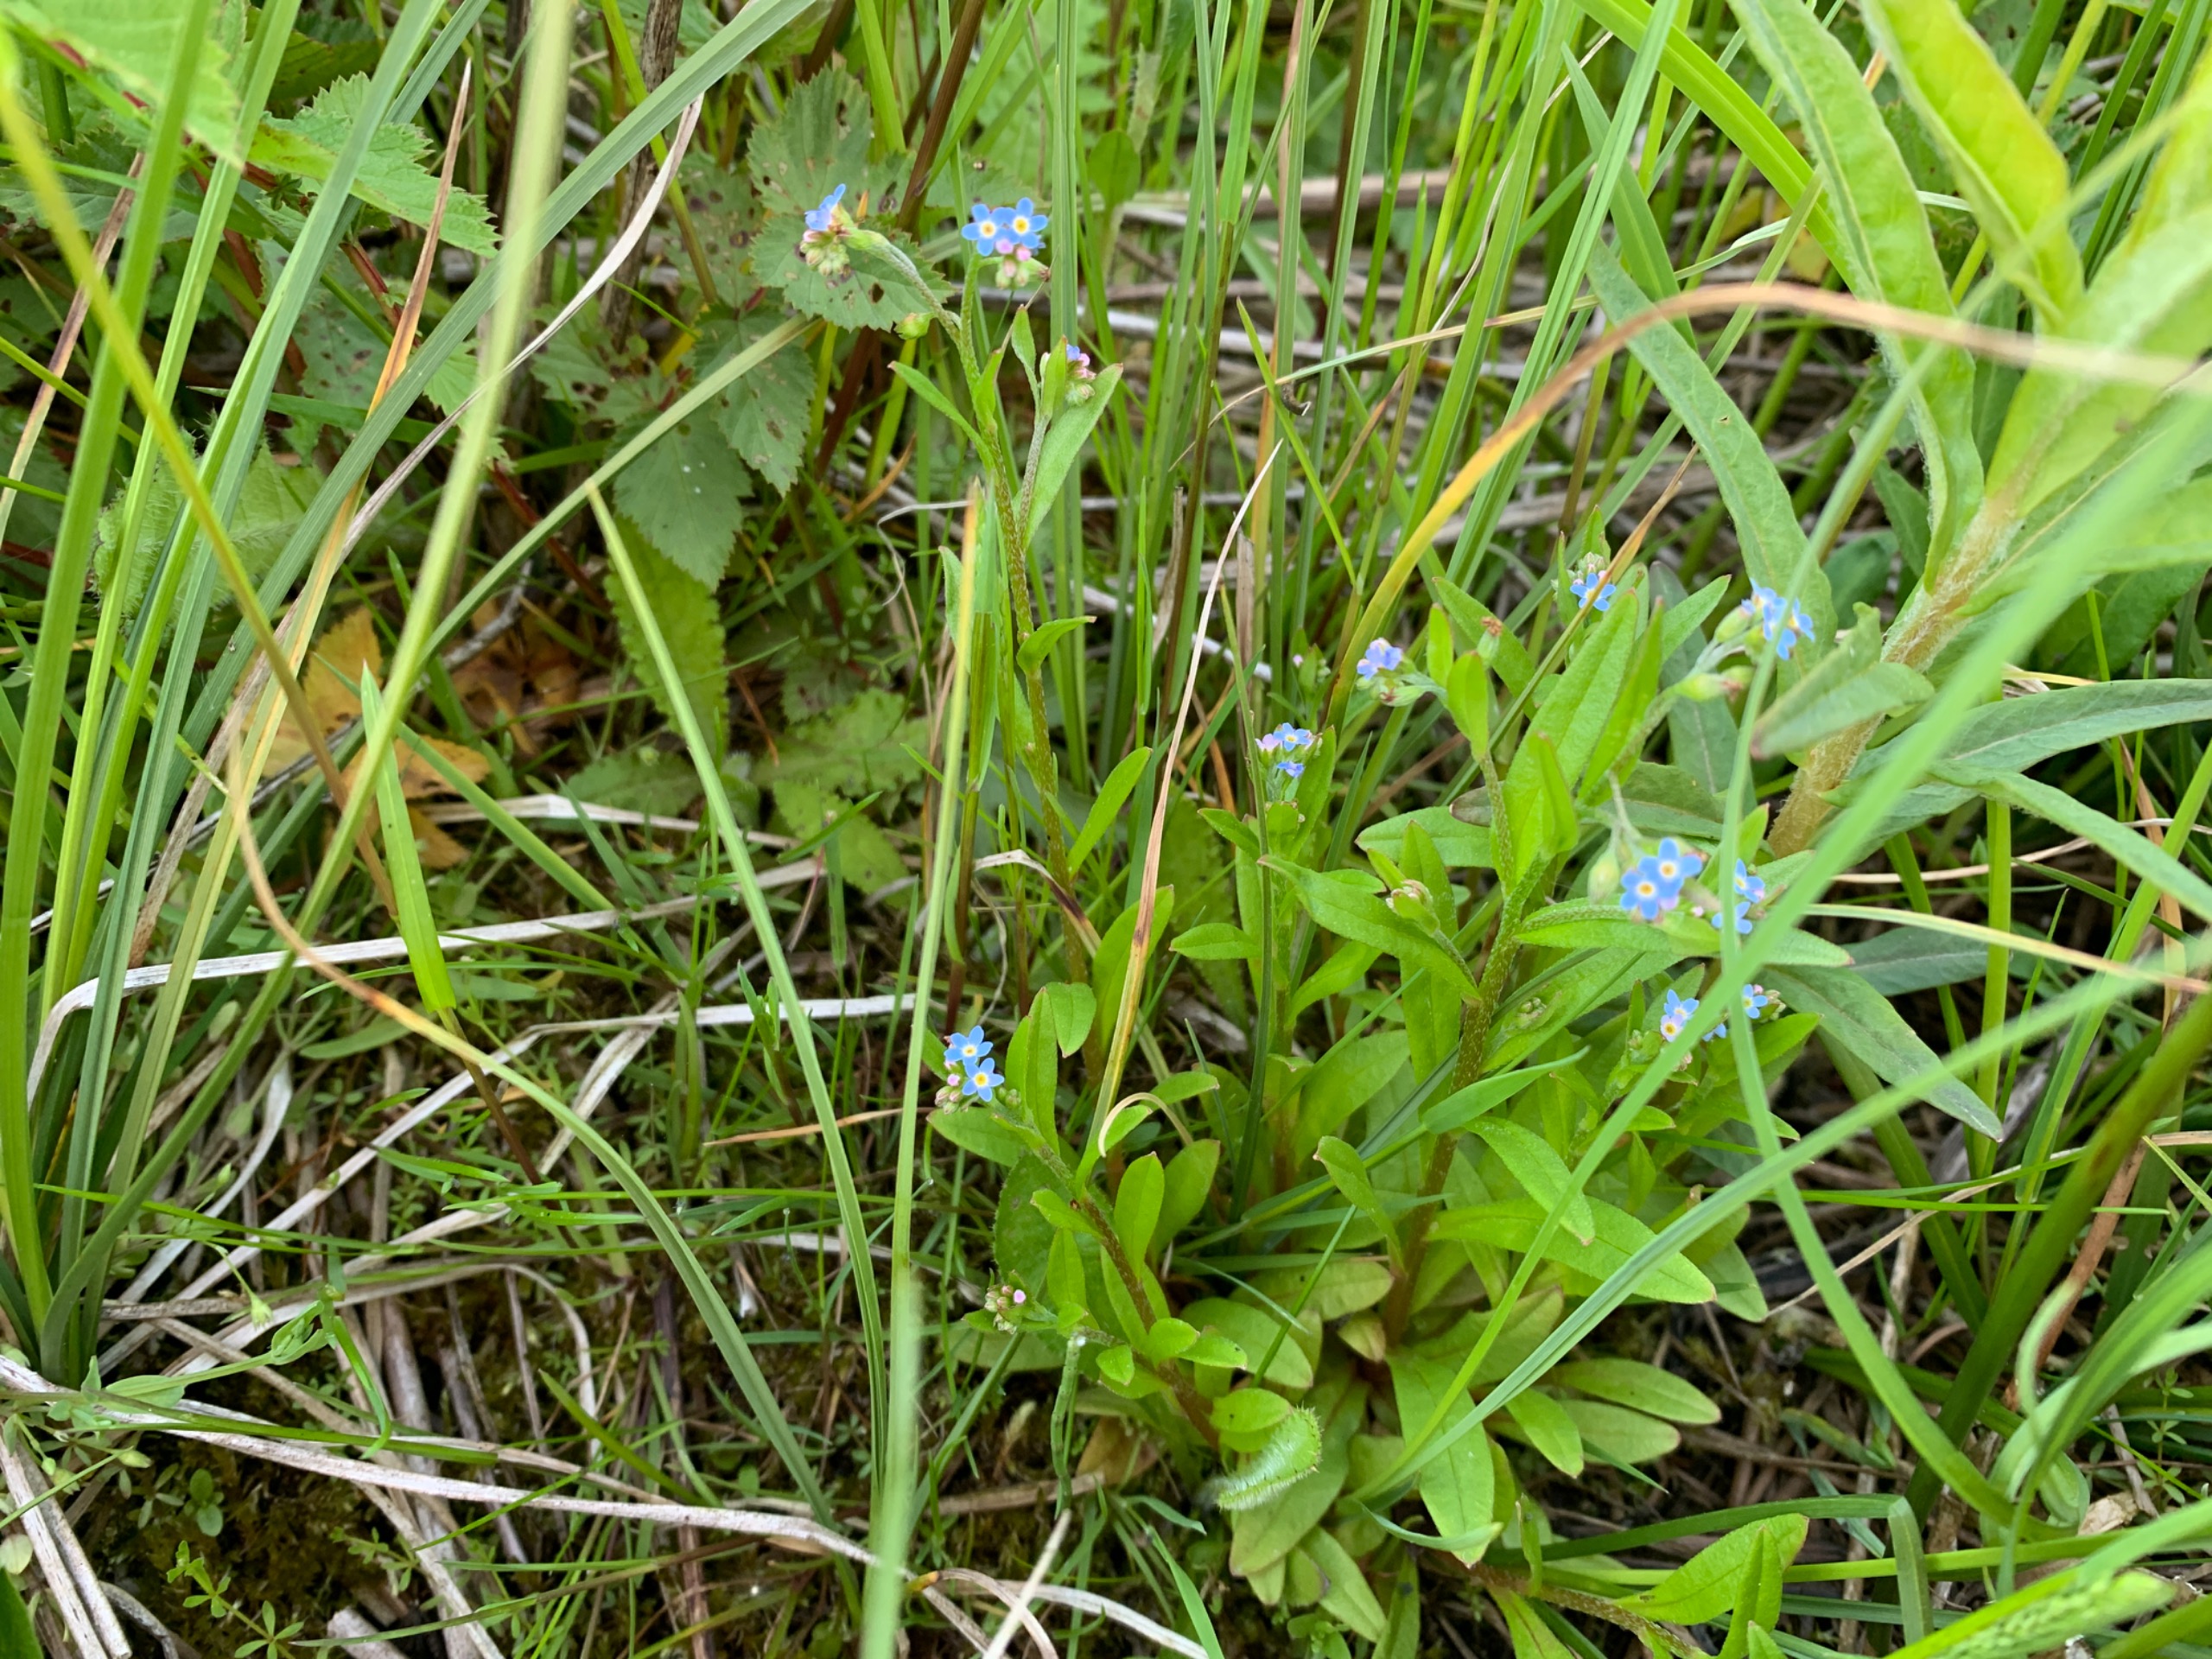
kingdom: Plantae
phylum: Tracheophyta
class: Magnoliopsida
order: Boraginales
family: Boraginaceae
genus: Myosotis
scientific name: Myosotis scorpioides
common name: Eng-forglemmigej
